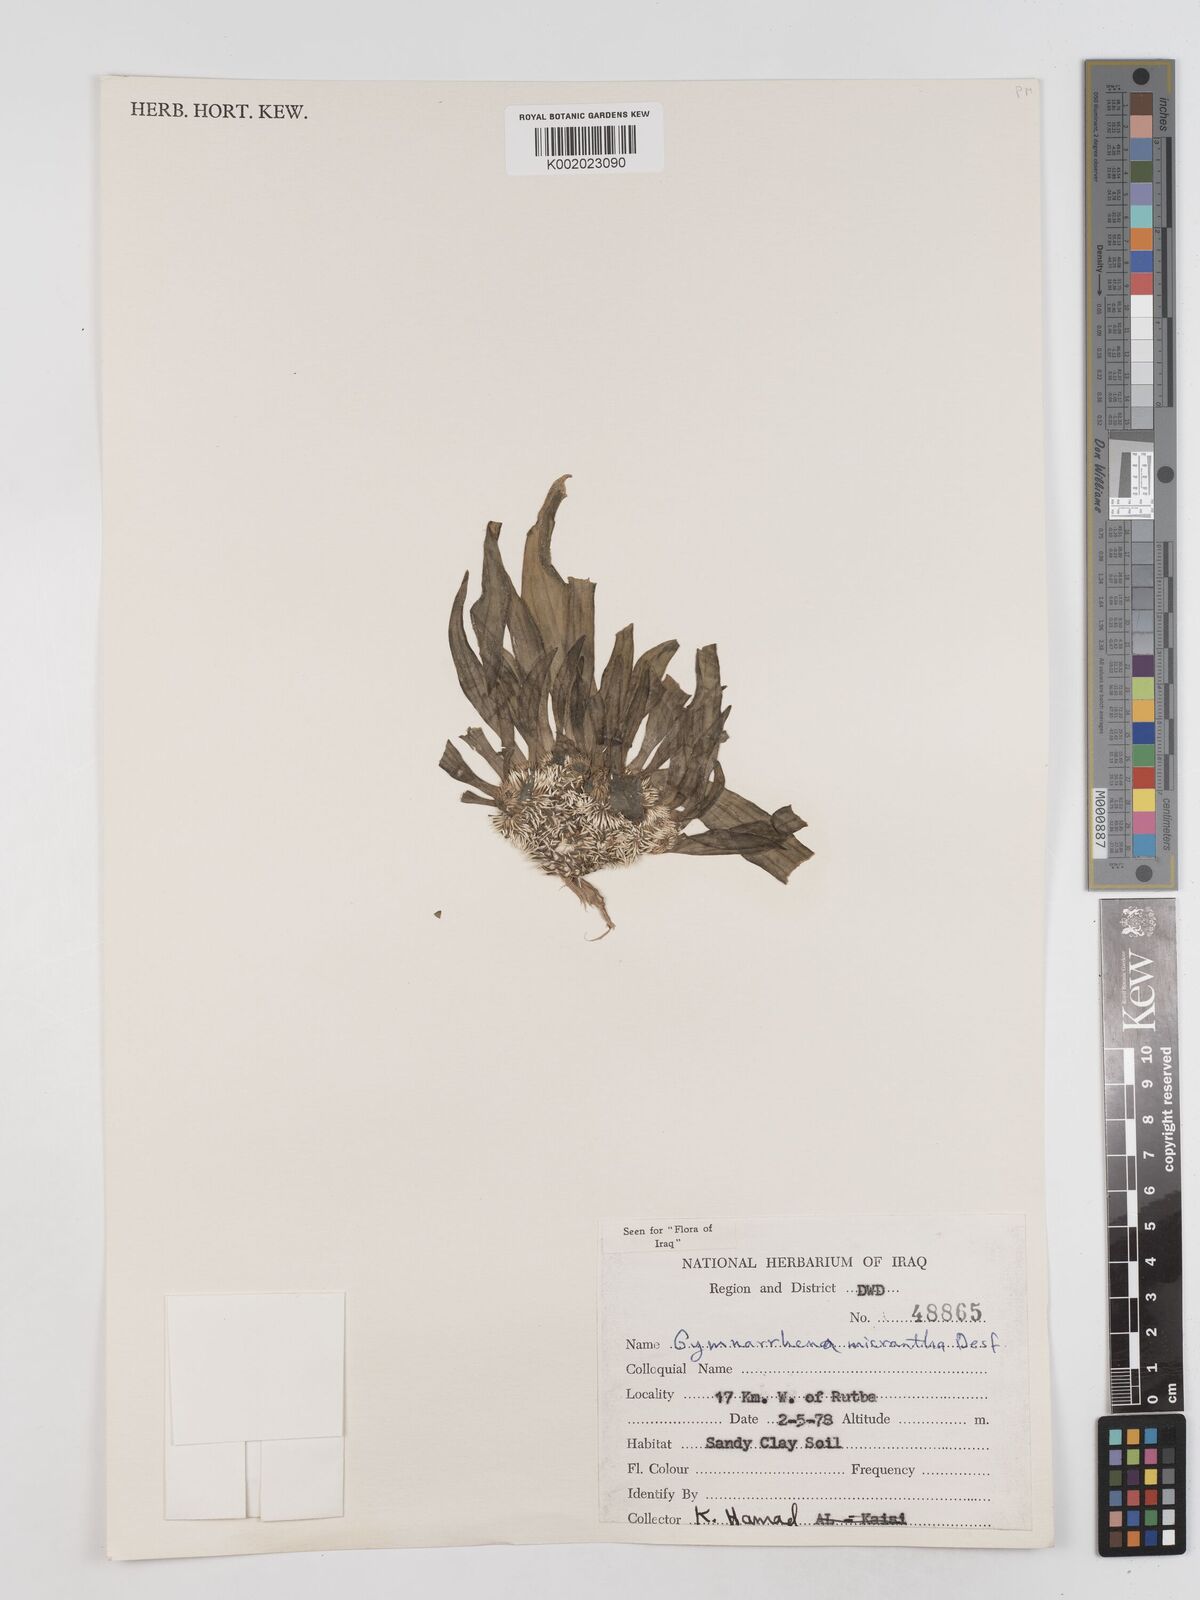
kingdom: Plantae
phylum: Tracheophyta
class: Magnoliopsida
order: Asterales
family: Asteraceae
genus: Gymnarrhena
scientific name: Gymnarrhena micrantha
